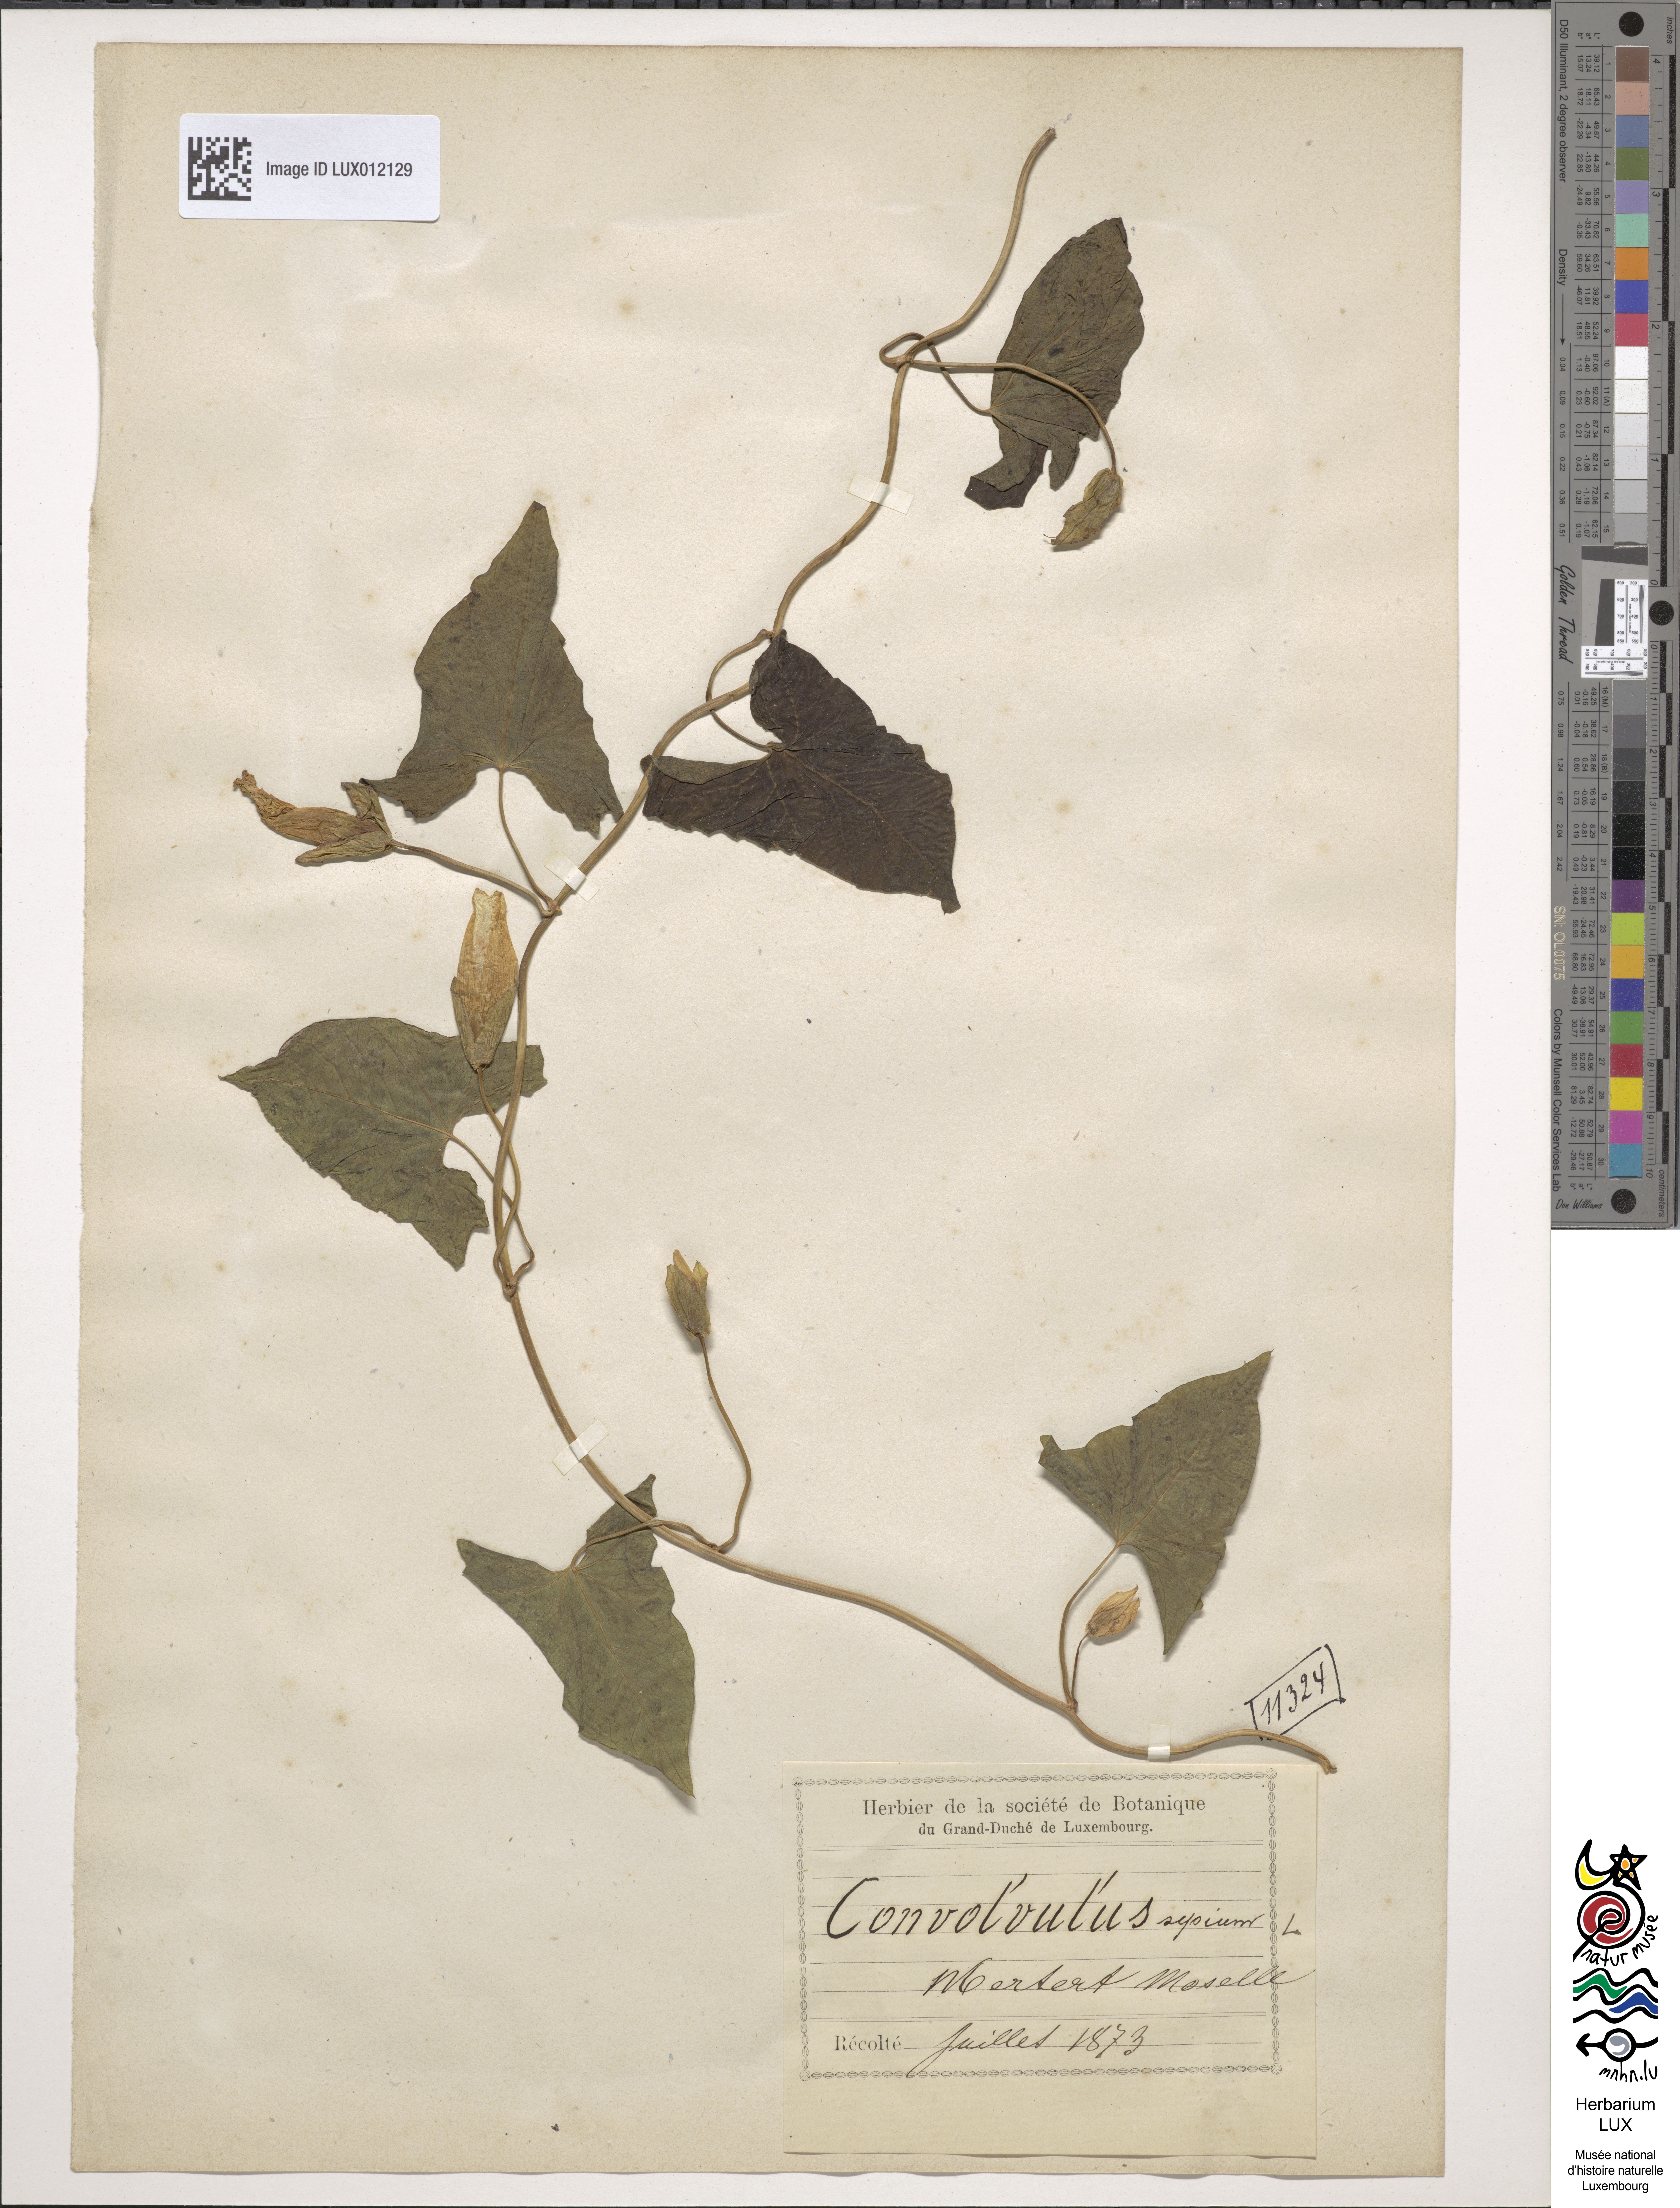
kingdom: Plantae
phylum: Tracheophyta
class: Magnoliopsida
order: Solanales
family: Convolvulaceae
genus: Calystegia
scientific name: Calystegia sepium
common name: Hedge bindweed
